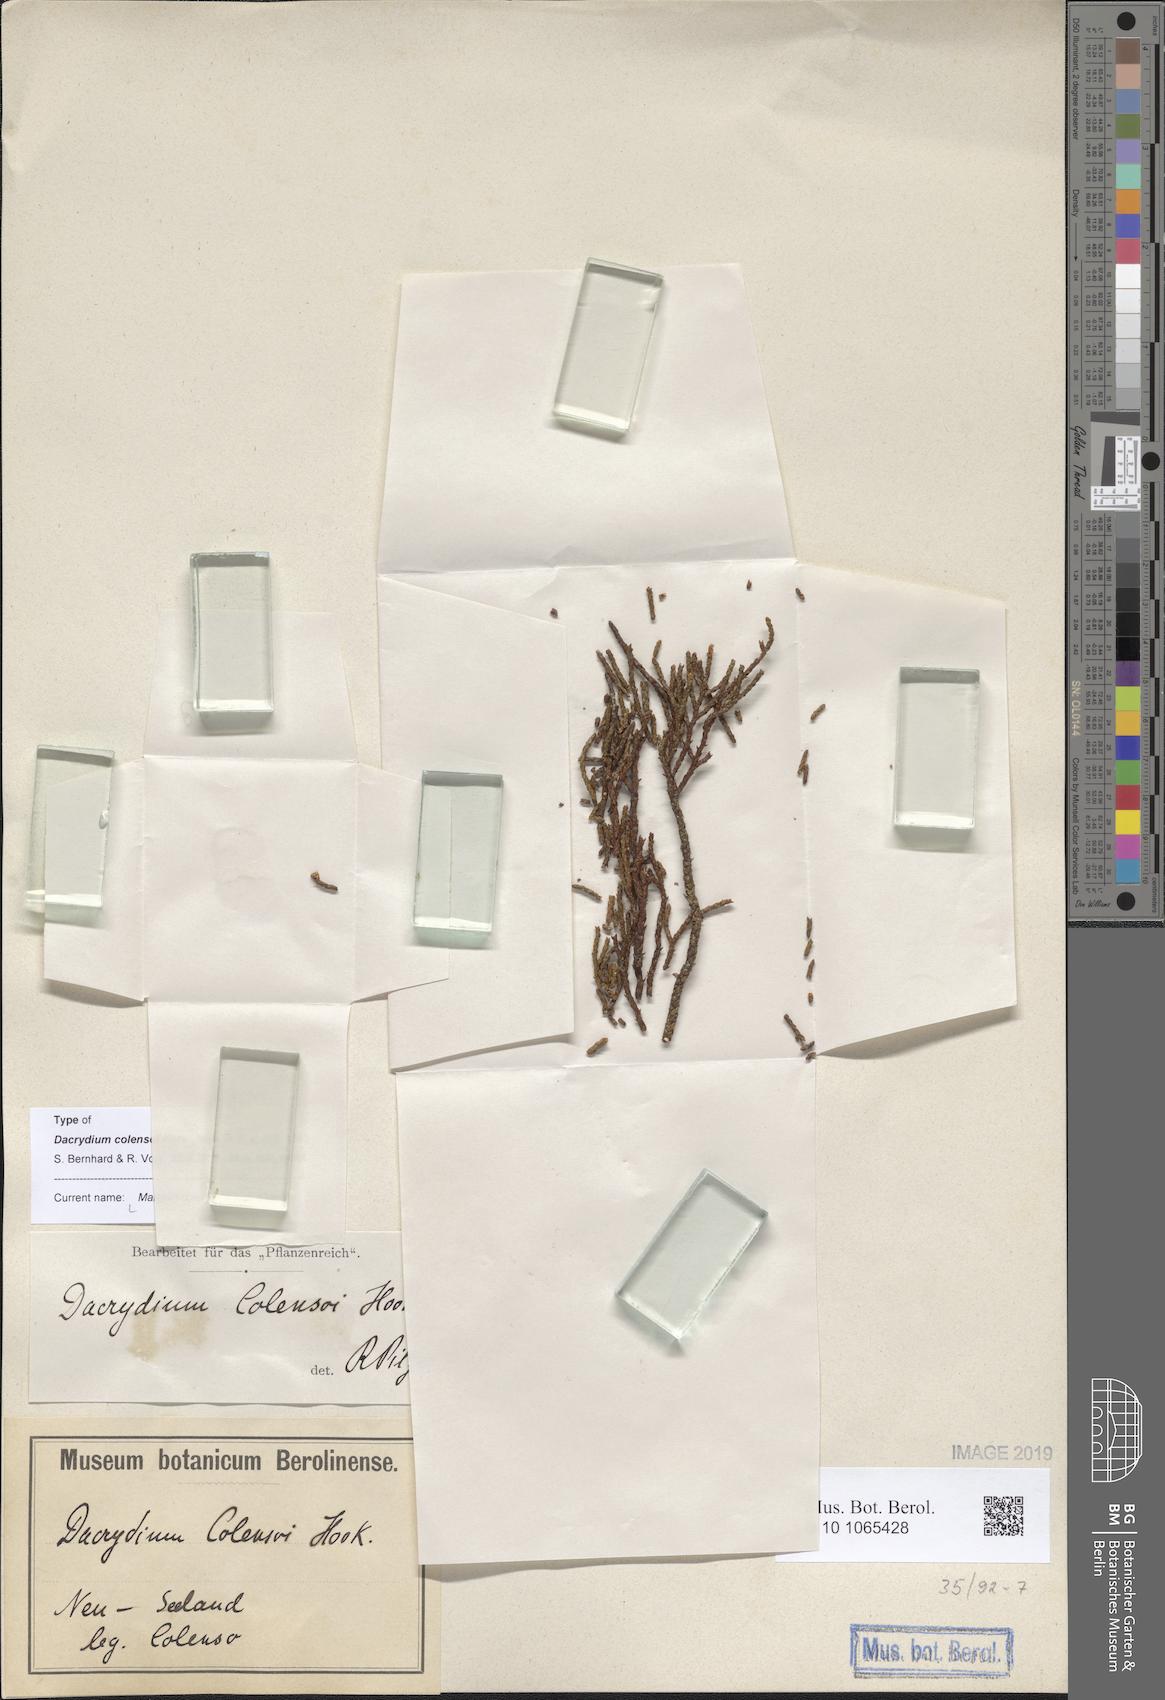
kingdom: Plantae
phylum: Tracheophyta
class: Pinopsida
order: Pinales
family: Podocarpaceae
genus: Manoao
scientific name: Manoao colensoi
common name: Silver pine
